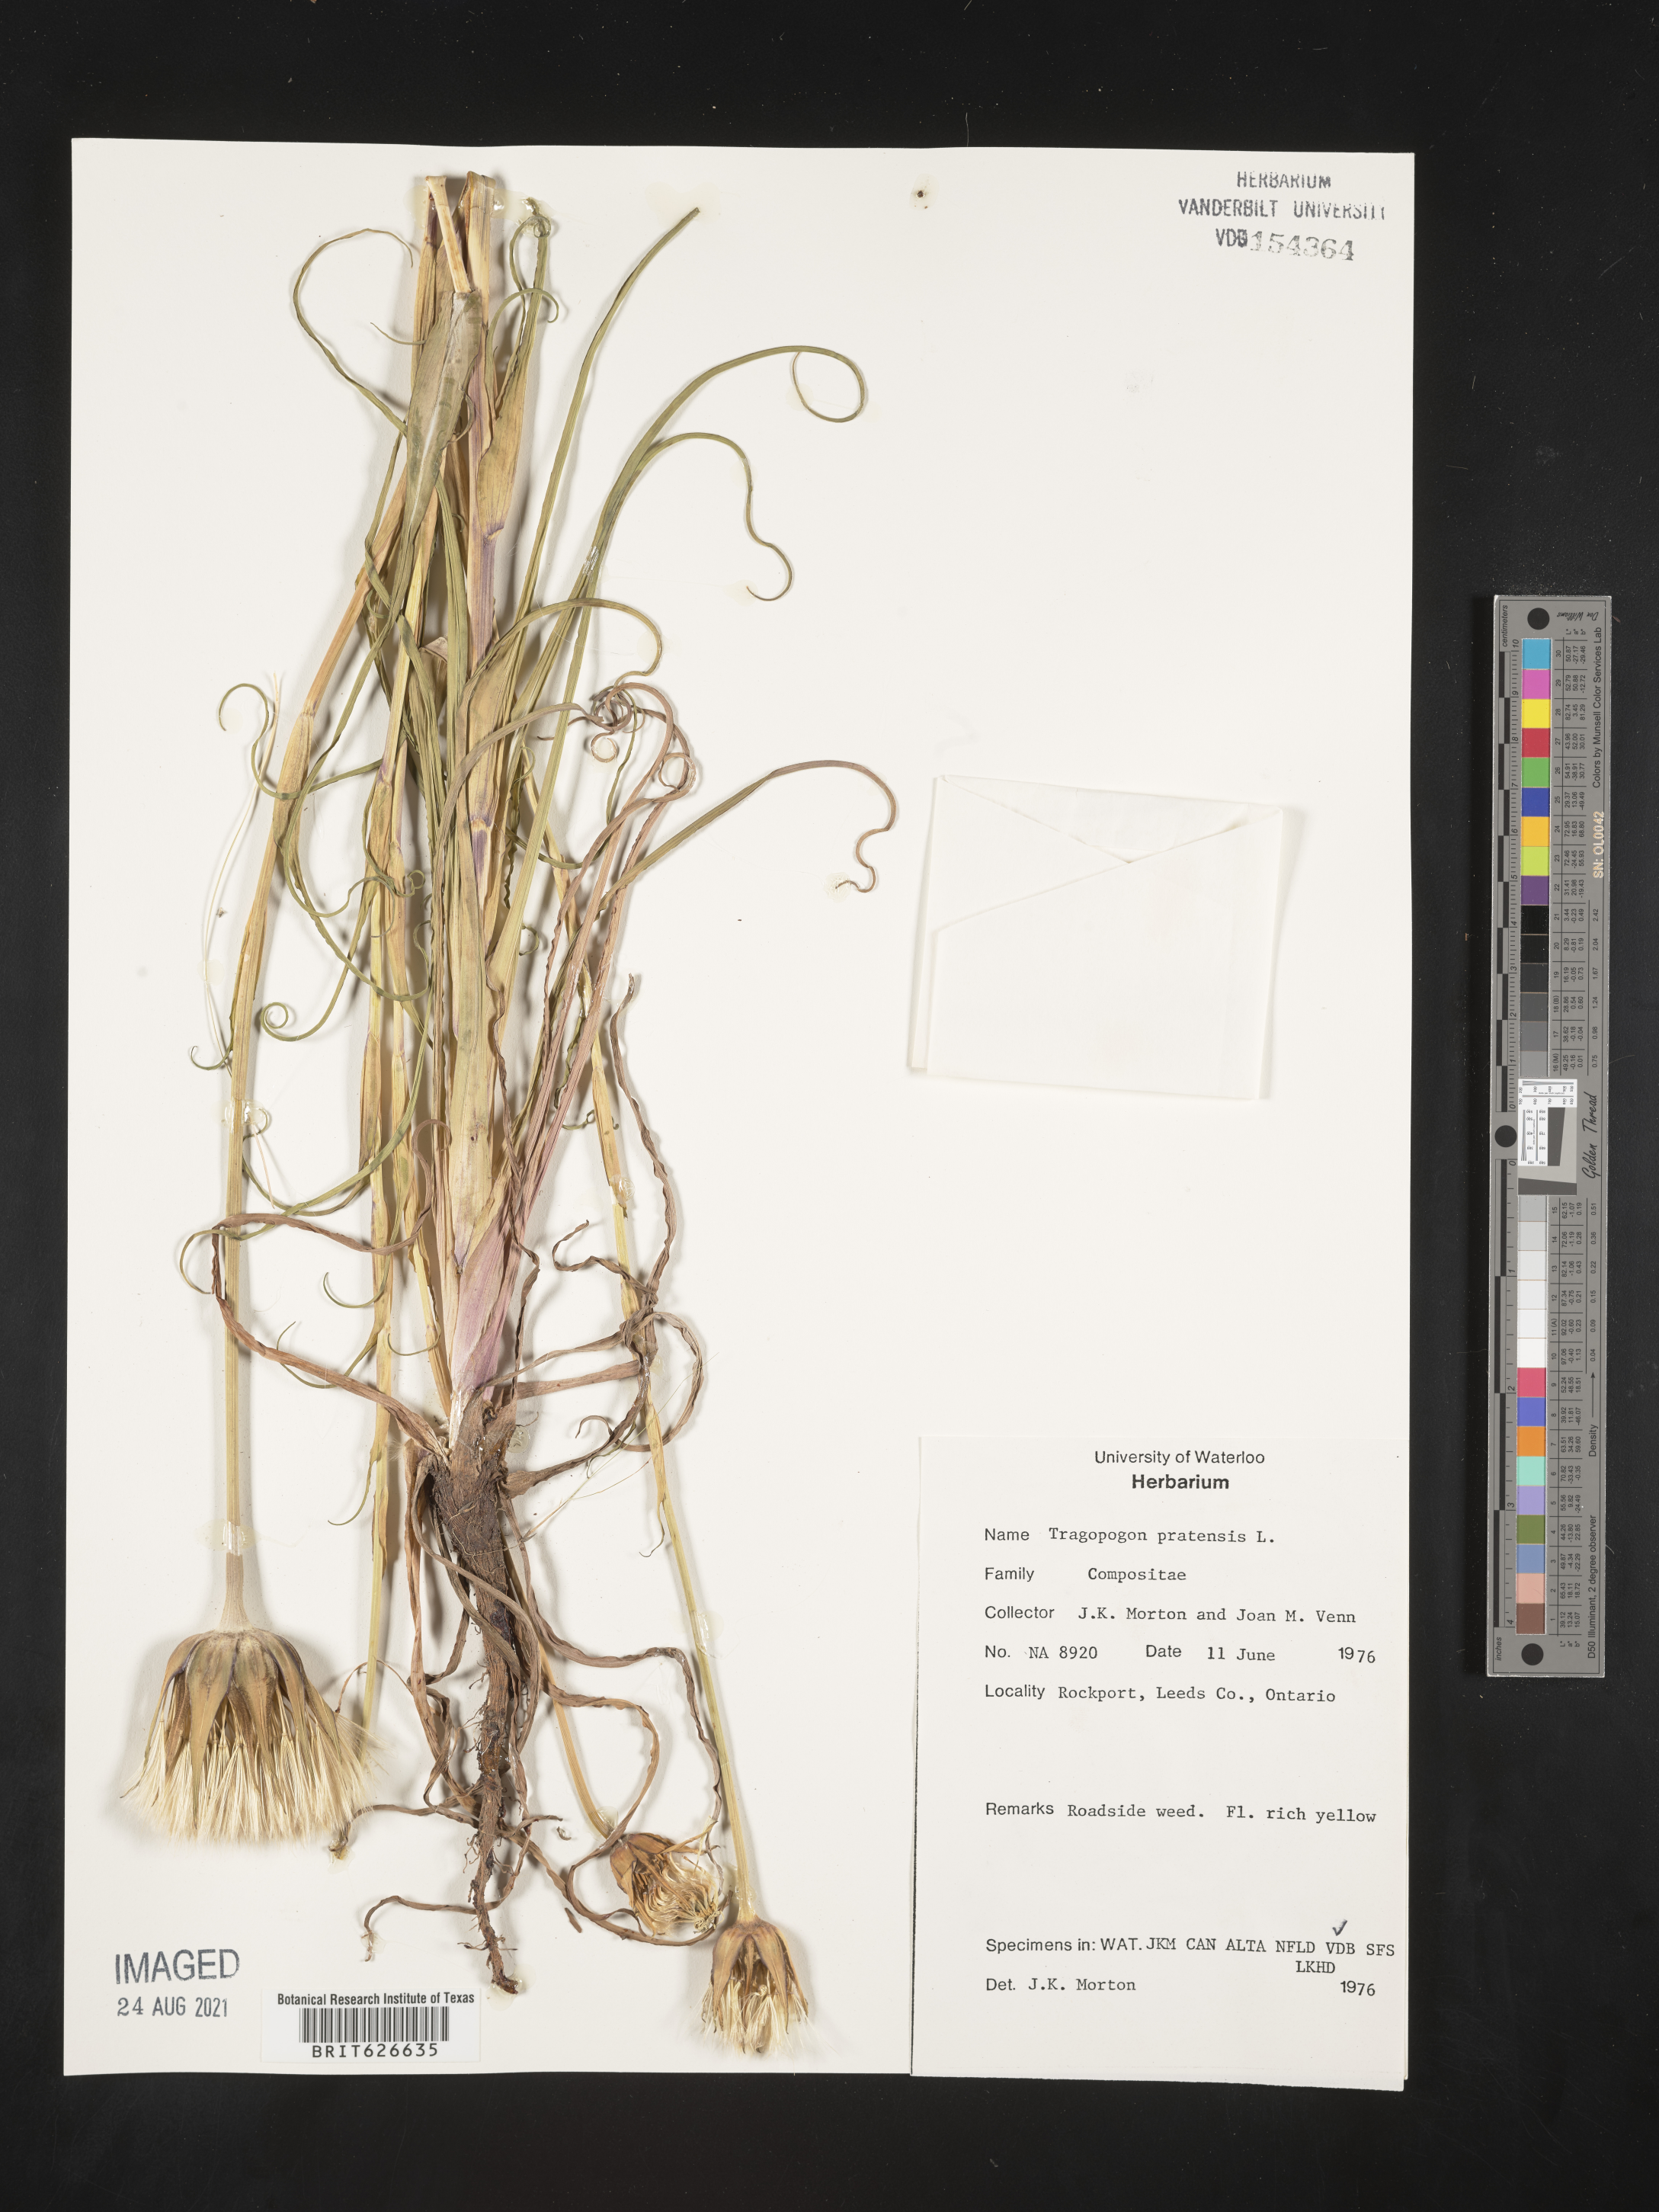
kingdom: Plantae
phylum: Tracheophyta
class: Magnoliopsida
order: Asterales
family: Asteraceae
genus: Tragopogon
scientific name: Tragopogon pratensis
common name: Goat's-beard
